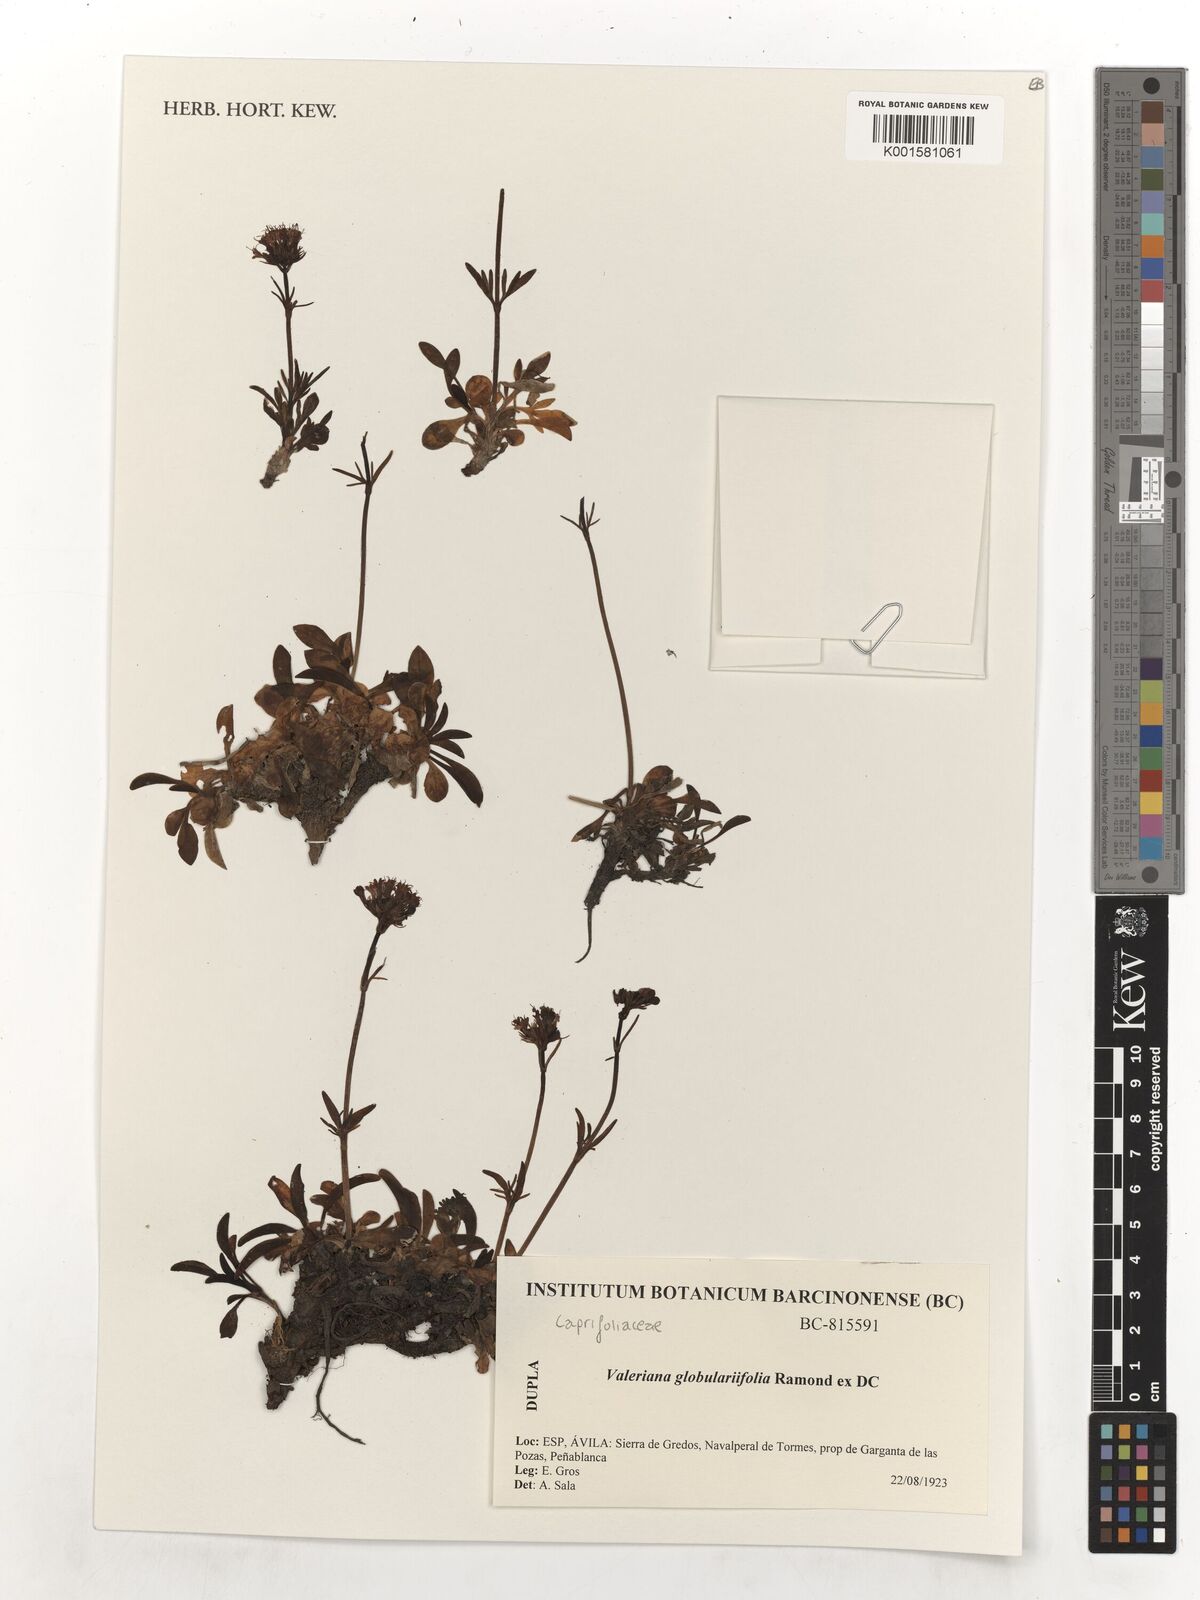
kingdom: Plantae
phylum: Tracheophyta
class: Magnoliopsida
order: Dipsacales
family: Caprifoliaceae
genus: Valeriana
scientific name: Valeriana apula
